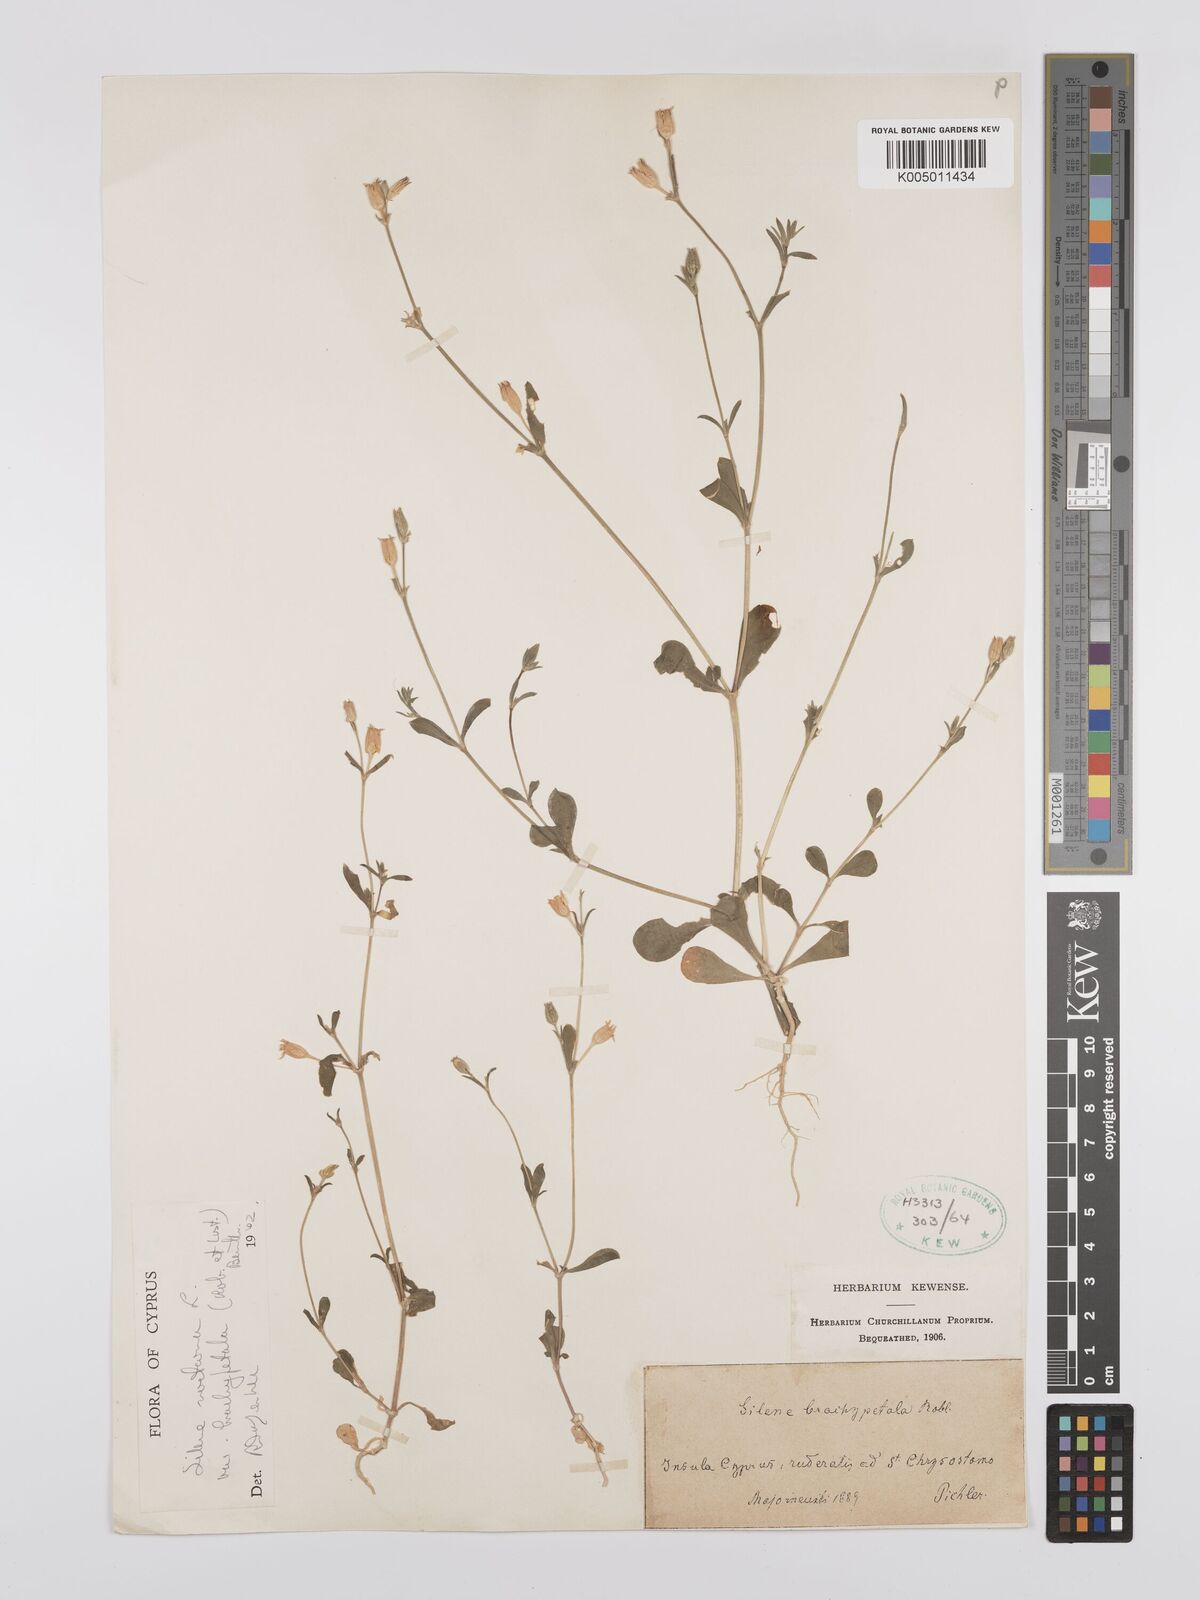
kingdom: Plantae
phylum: Tracheophyta
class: Magnoliopsida
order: Caryophyllales
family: Caryophyllaceae
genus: Silene
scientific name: Silene nocturna
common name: Mediterranean catchfly
